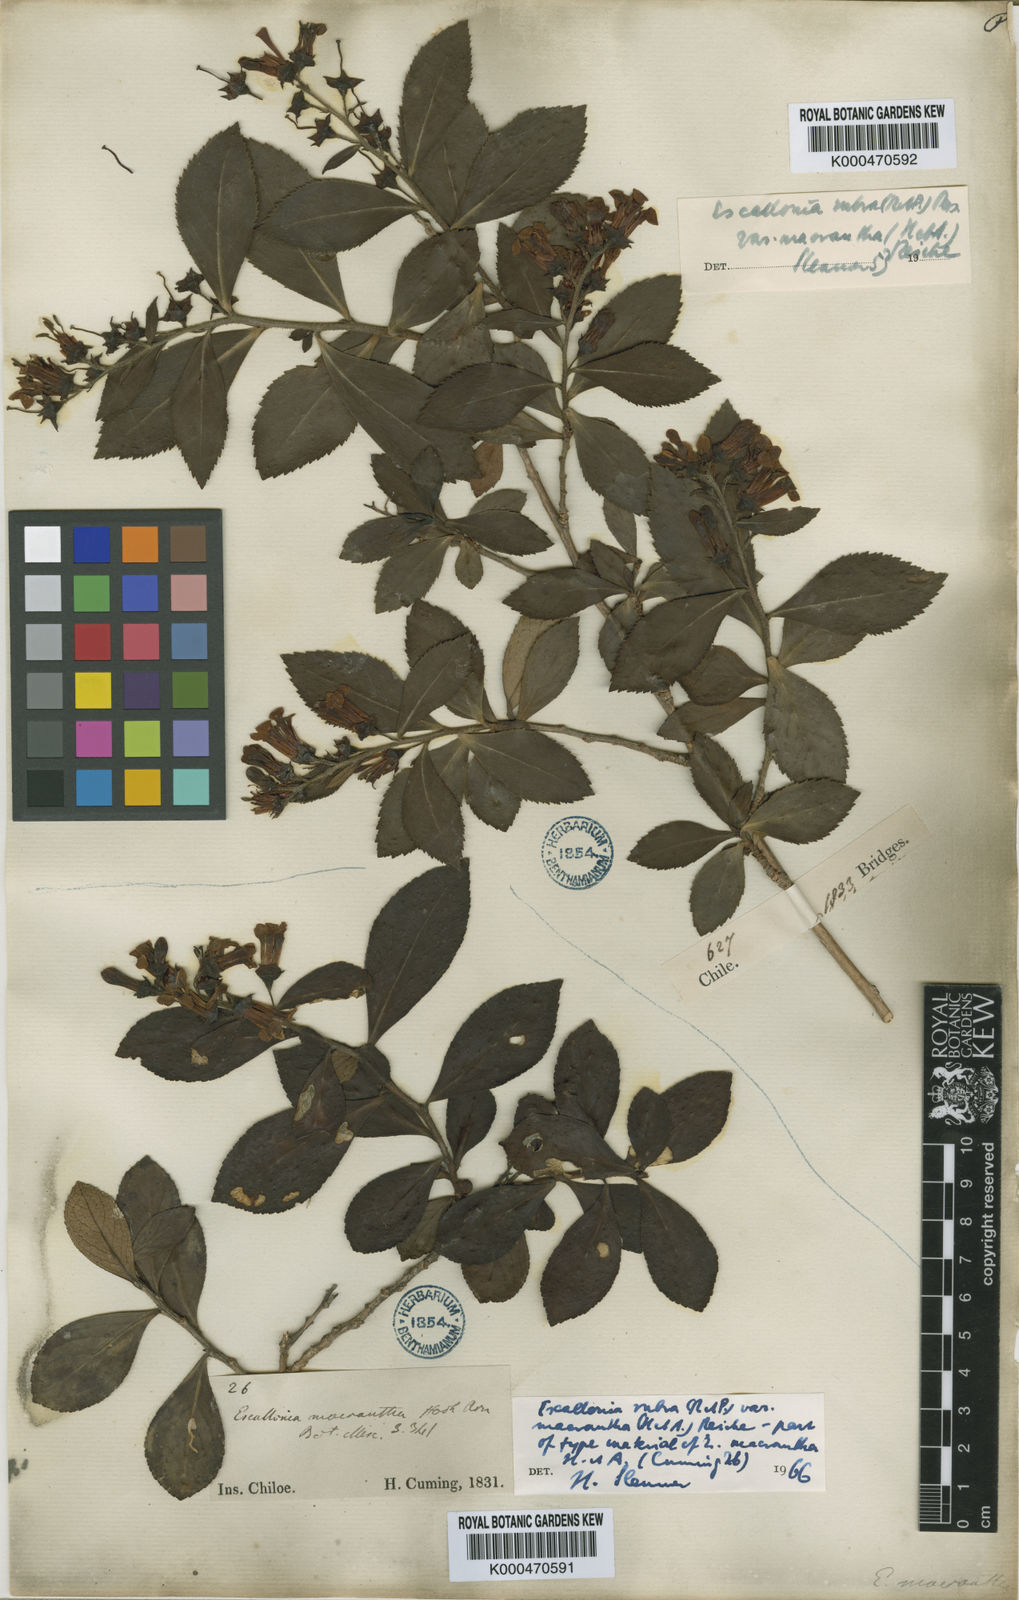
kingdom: Plantae
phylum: Tracheophyta
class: Magnoliopsida
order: Escalloniales
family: Escalloniaceae
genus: Escallonia
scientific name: Escallonia rubra
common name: Redclaws
